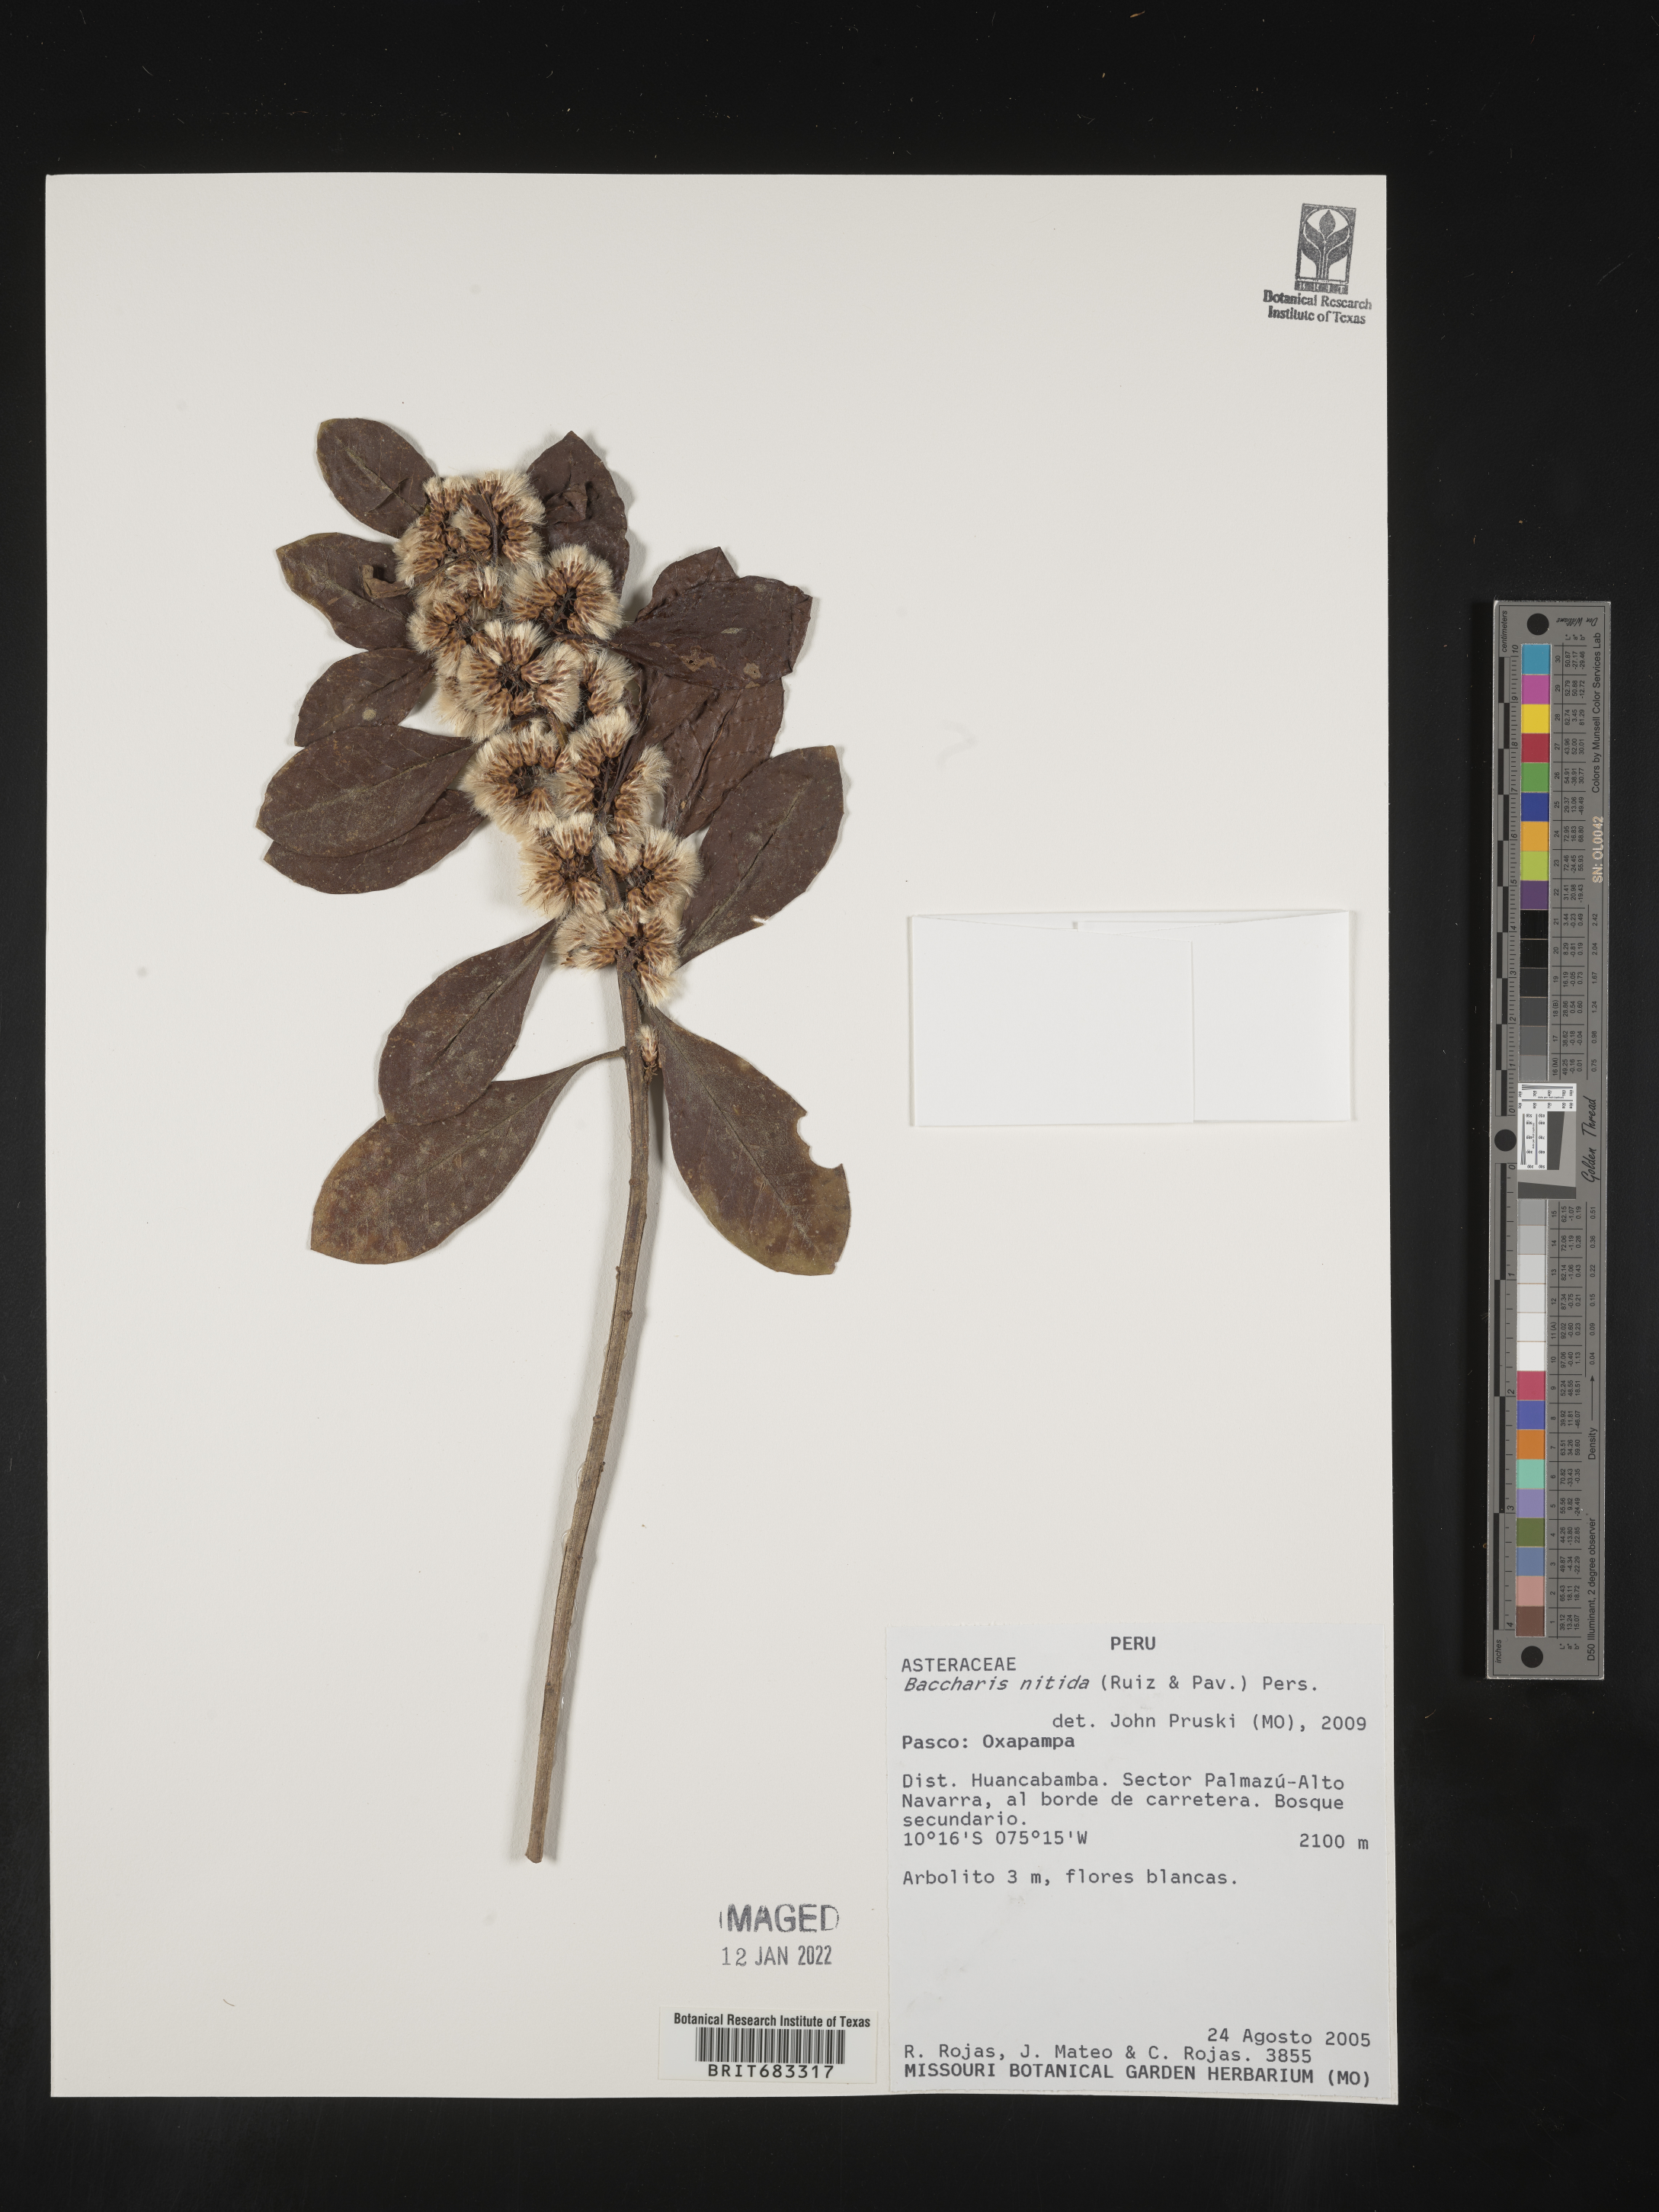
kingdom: Plantae
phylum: Tracheophyta
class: Magnoliopsida
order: Asterales
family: Asteraceae
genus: Baccharis
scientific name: Baccharis
